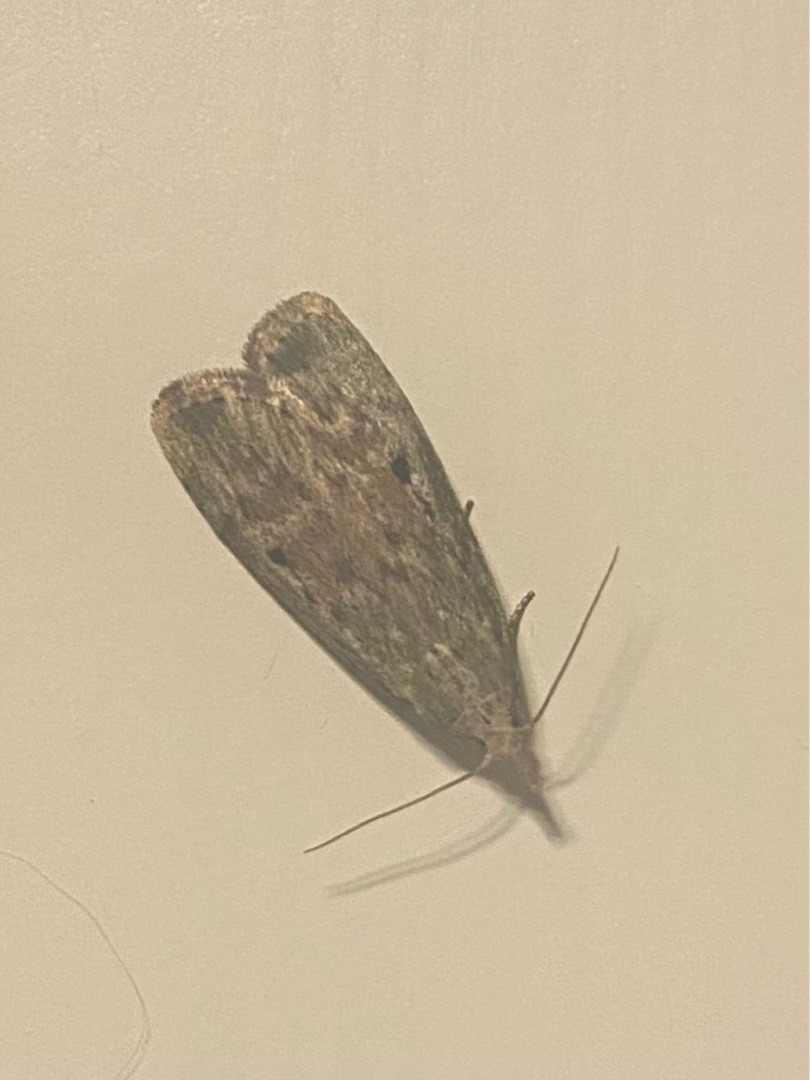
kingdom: Animalia
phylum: Arthropoda
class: Insecta
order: Lepidoptera
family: Pyralidae
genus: Aphomia
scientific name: Aphomia sociella
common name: Humlevoksmøl
